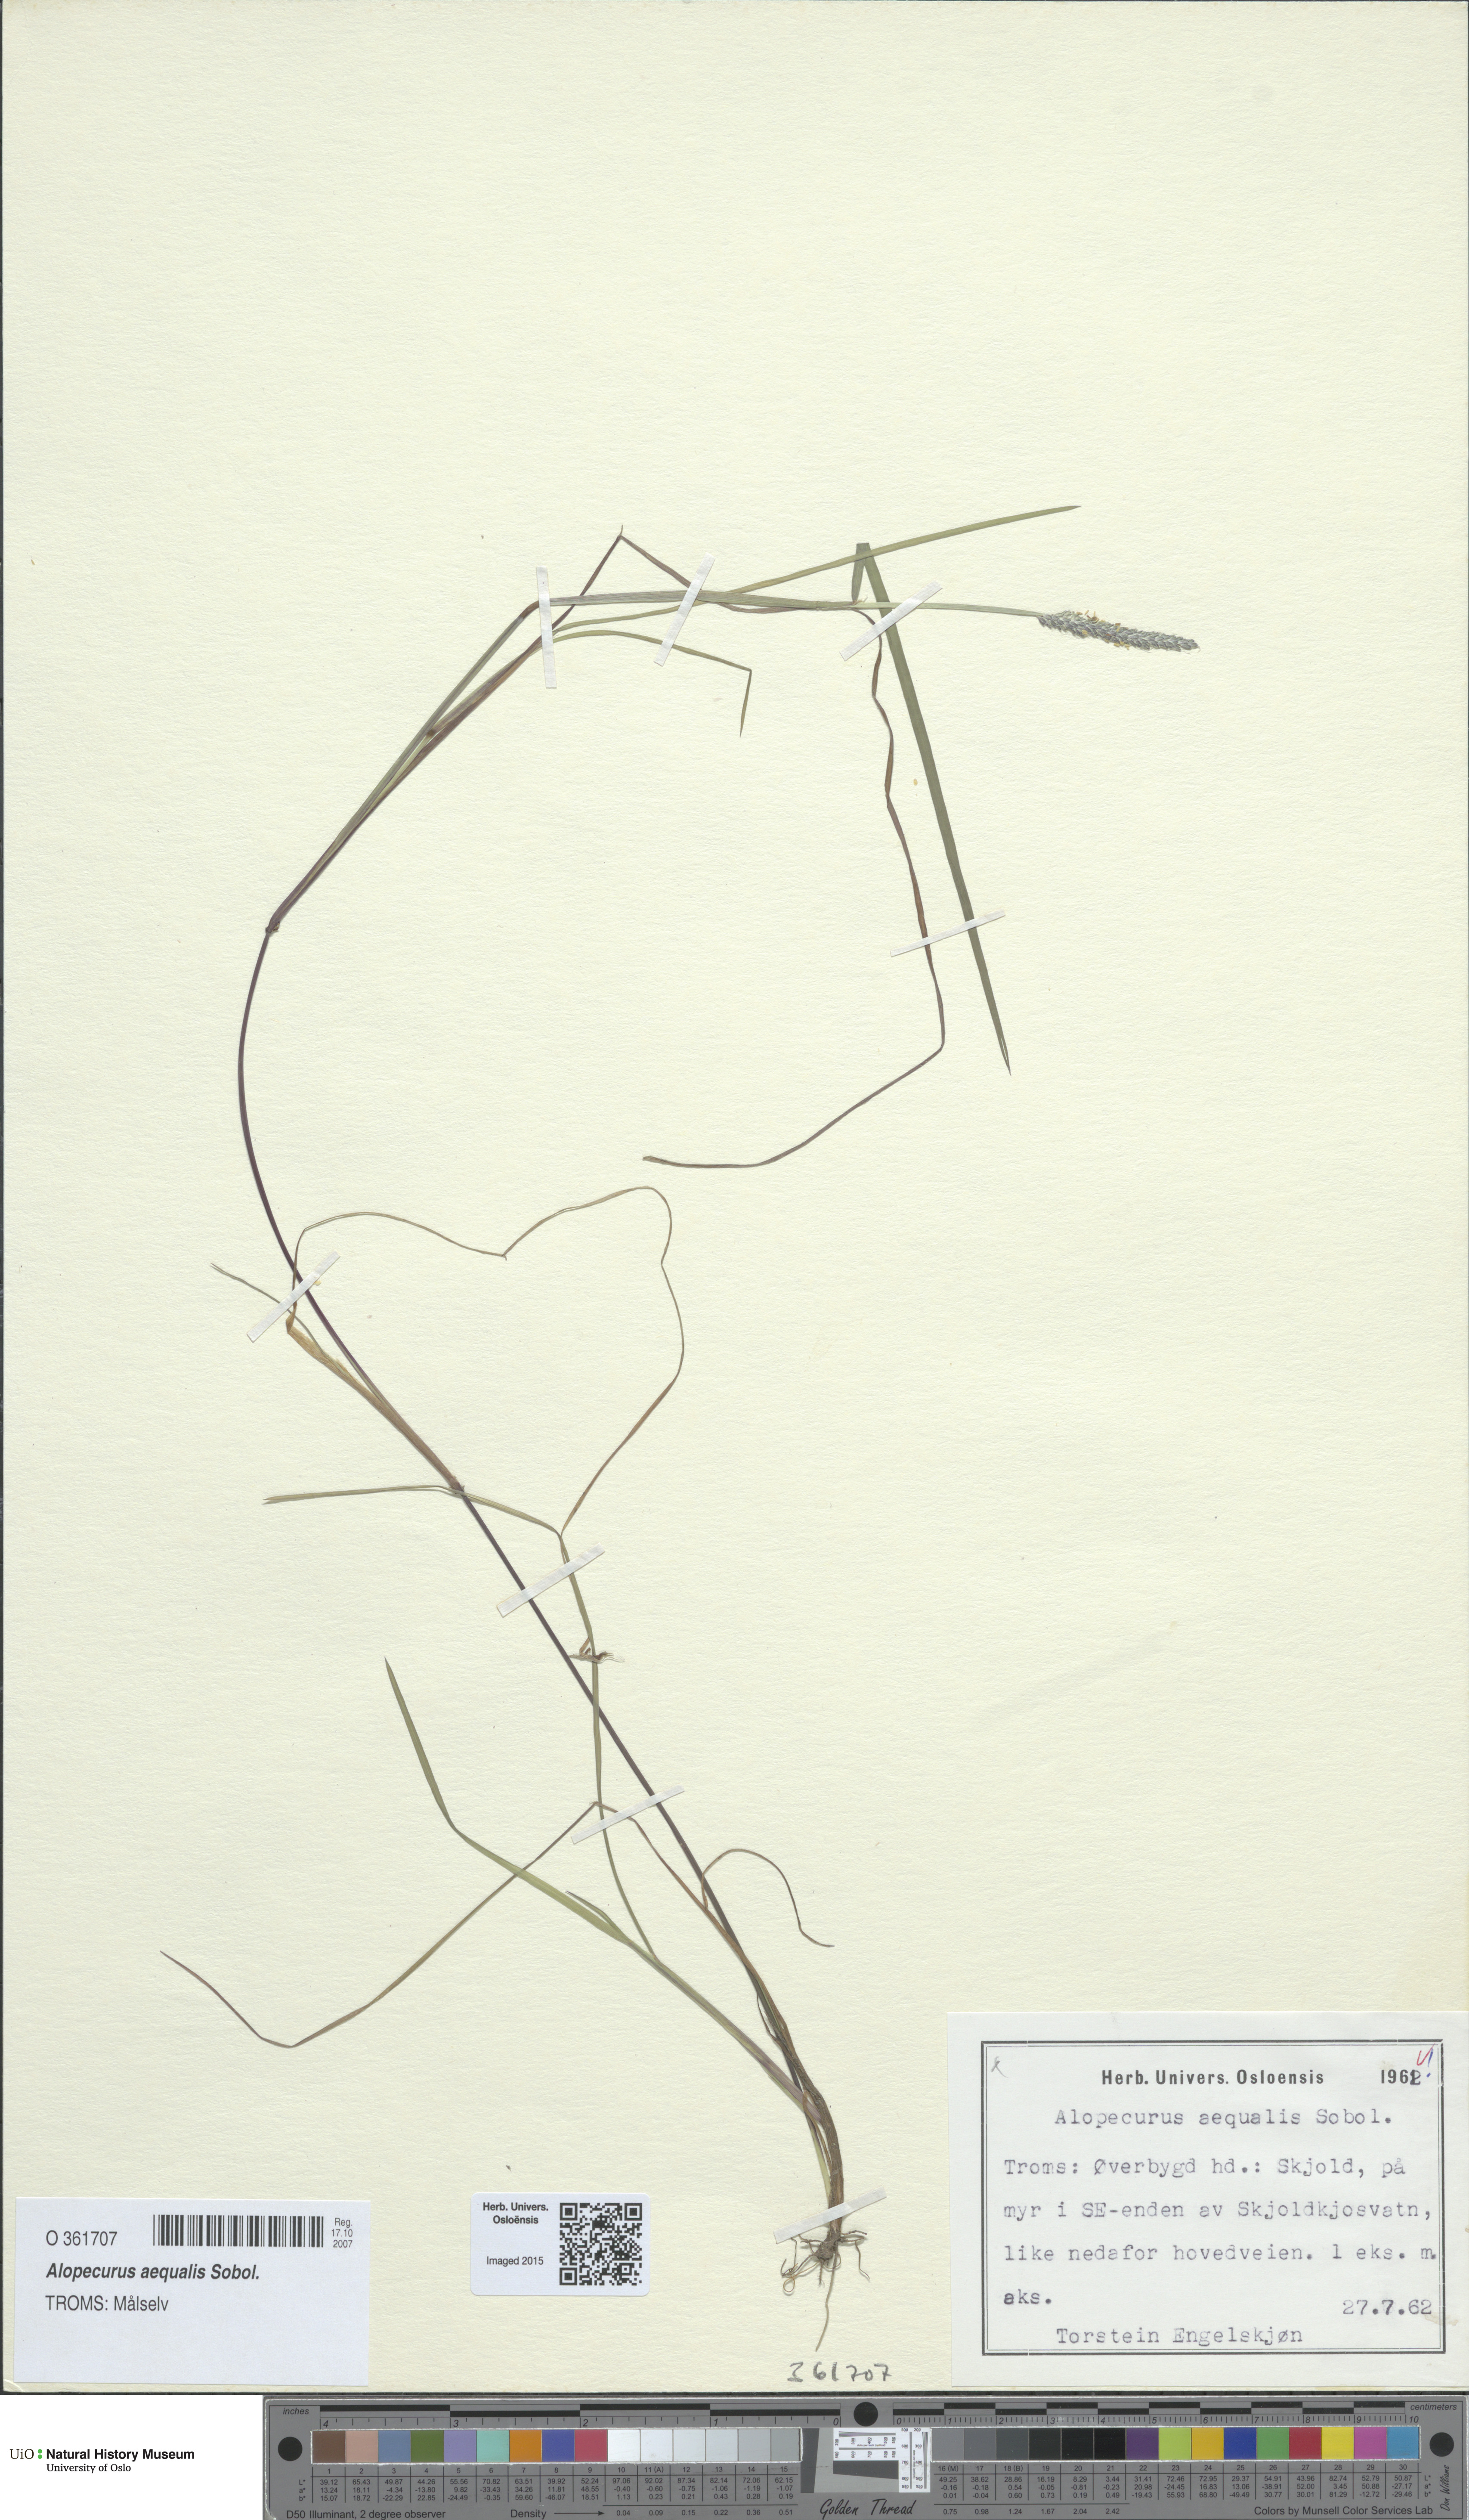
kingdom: Plantae
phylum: Tracheophyta
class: Liliopsida
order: Poales
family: Poaceae
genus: Alopecurus
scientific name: Alopecurus aequalis
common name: Orange foxtail
